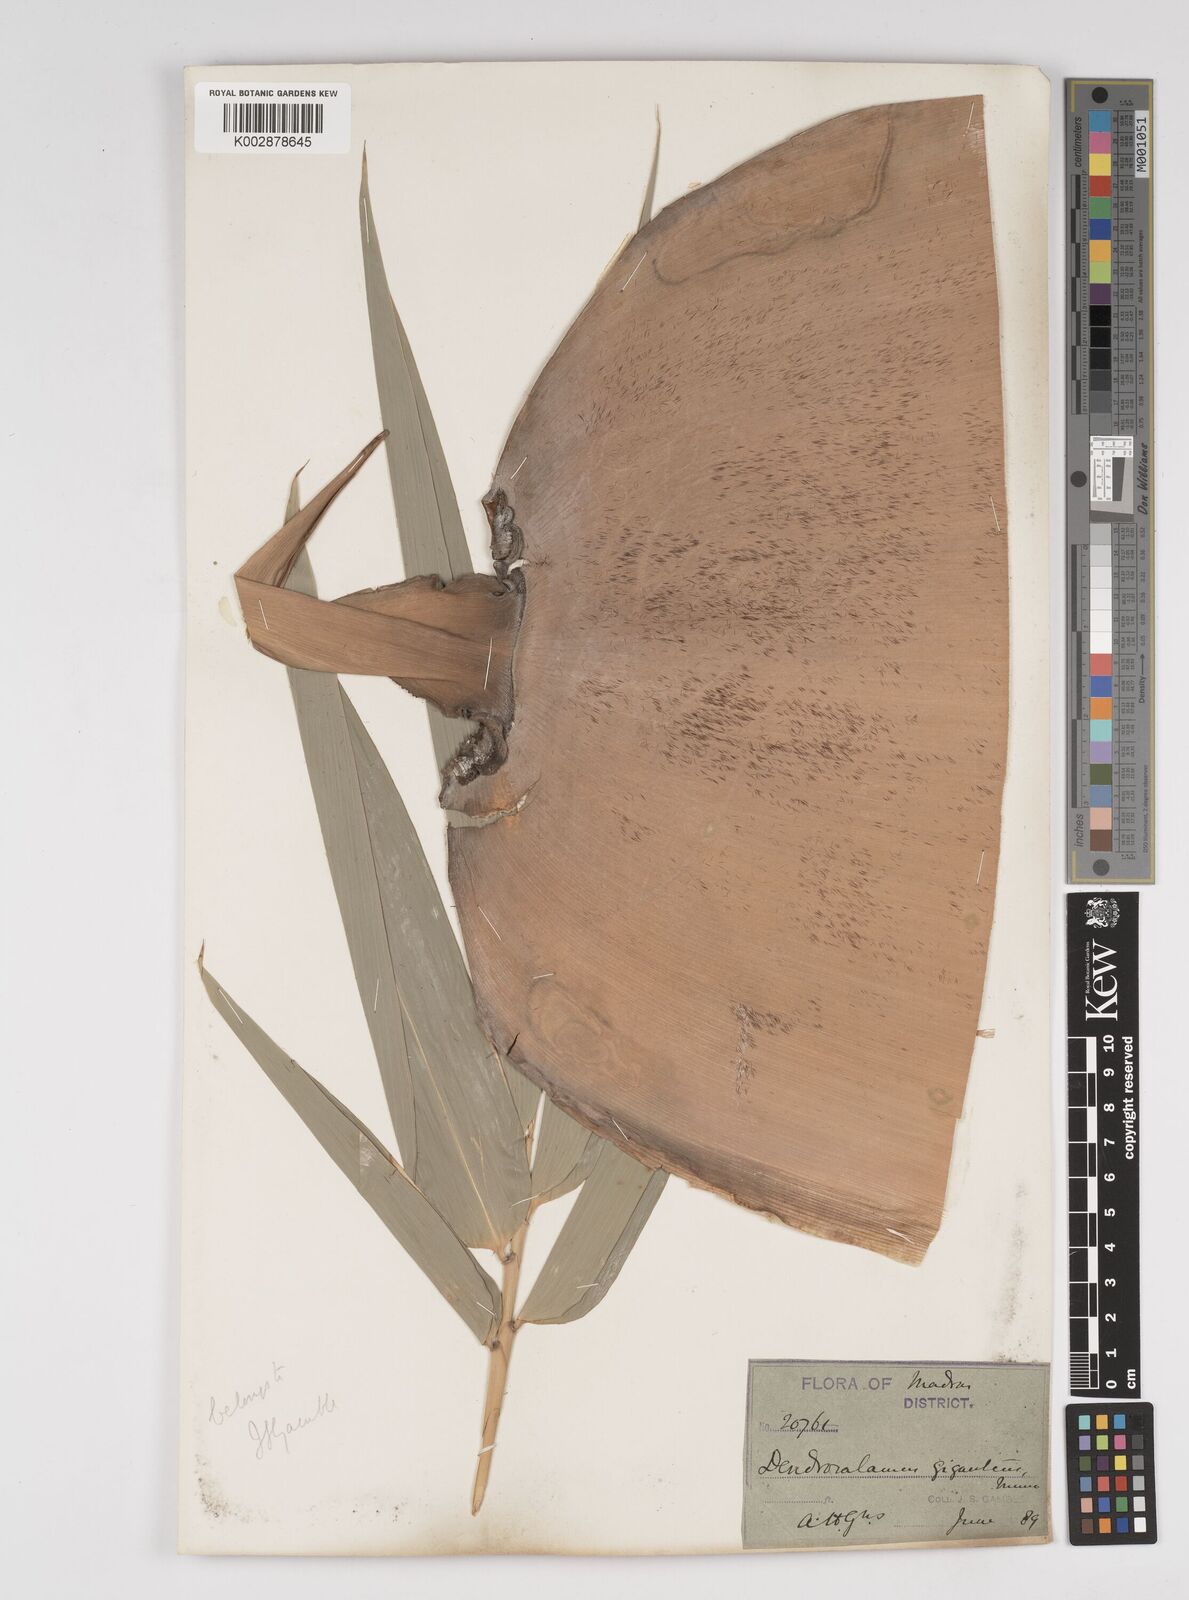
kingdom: Plantae
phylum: Tracheophyta
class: Liliopsida
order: Poales
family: Poaceae
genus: Dendrocalamus
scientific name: Dendrocalamus giganteus
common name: Giant bamboo
